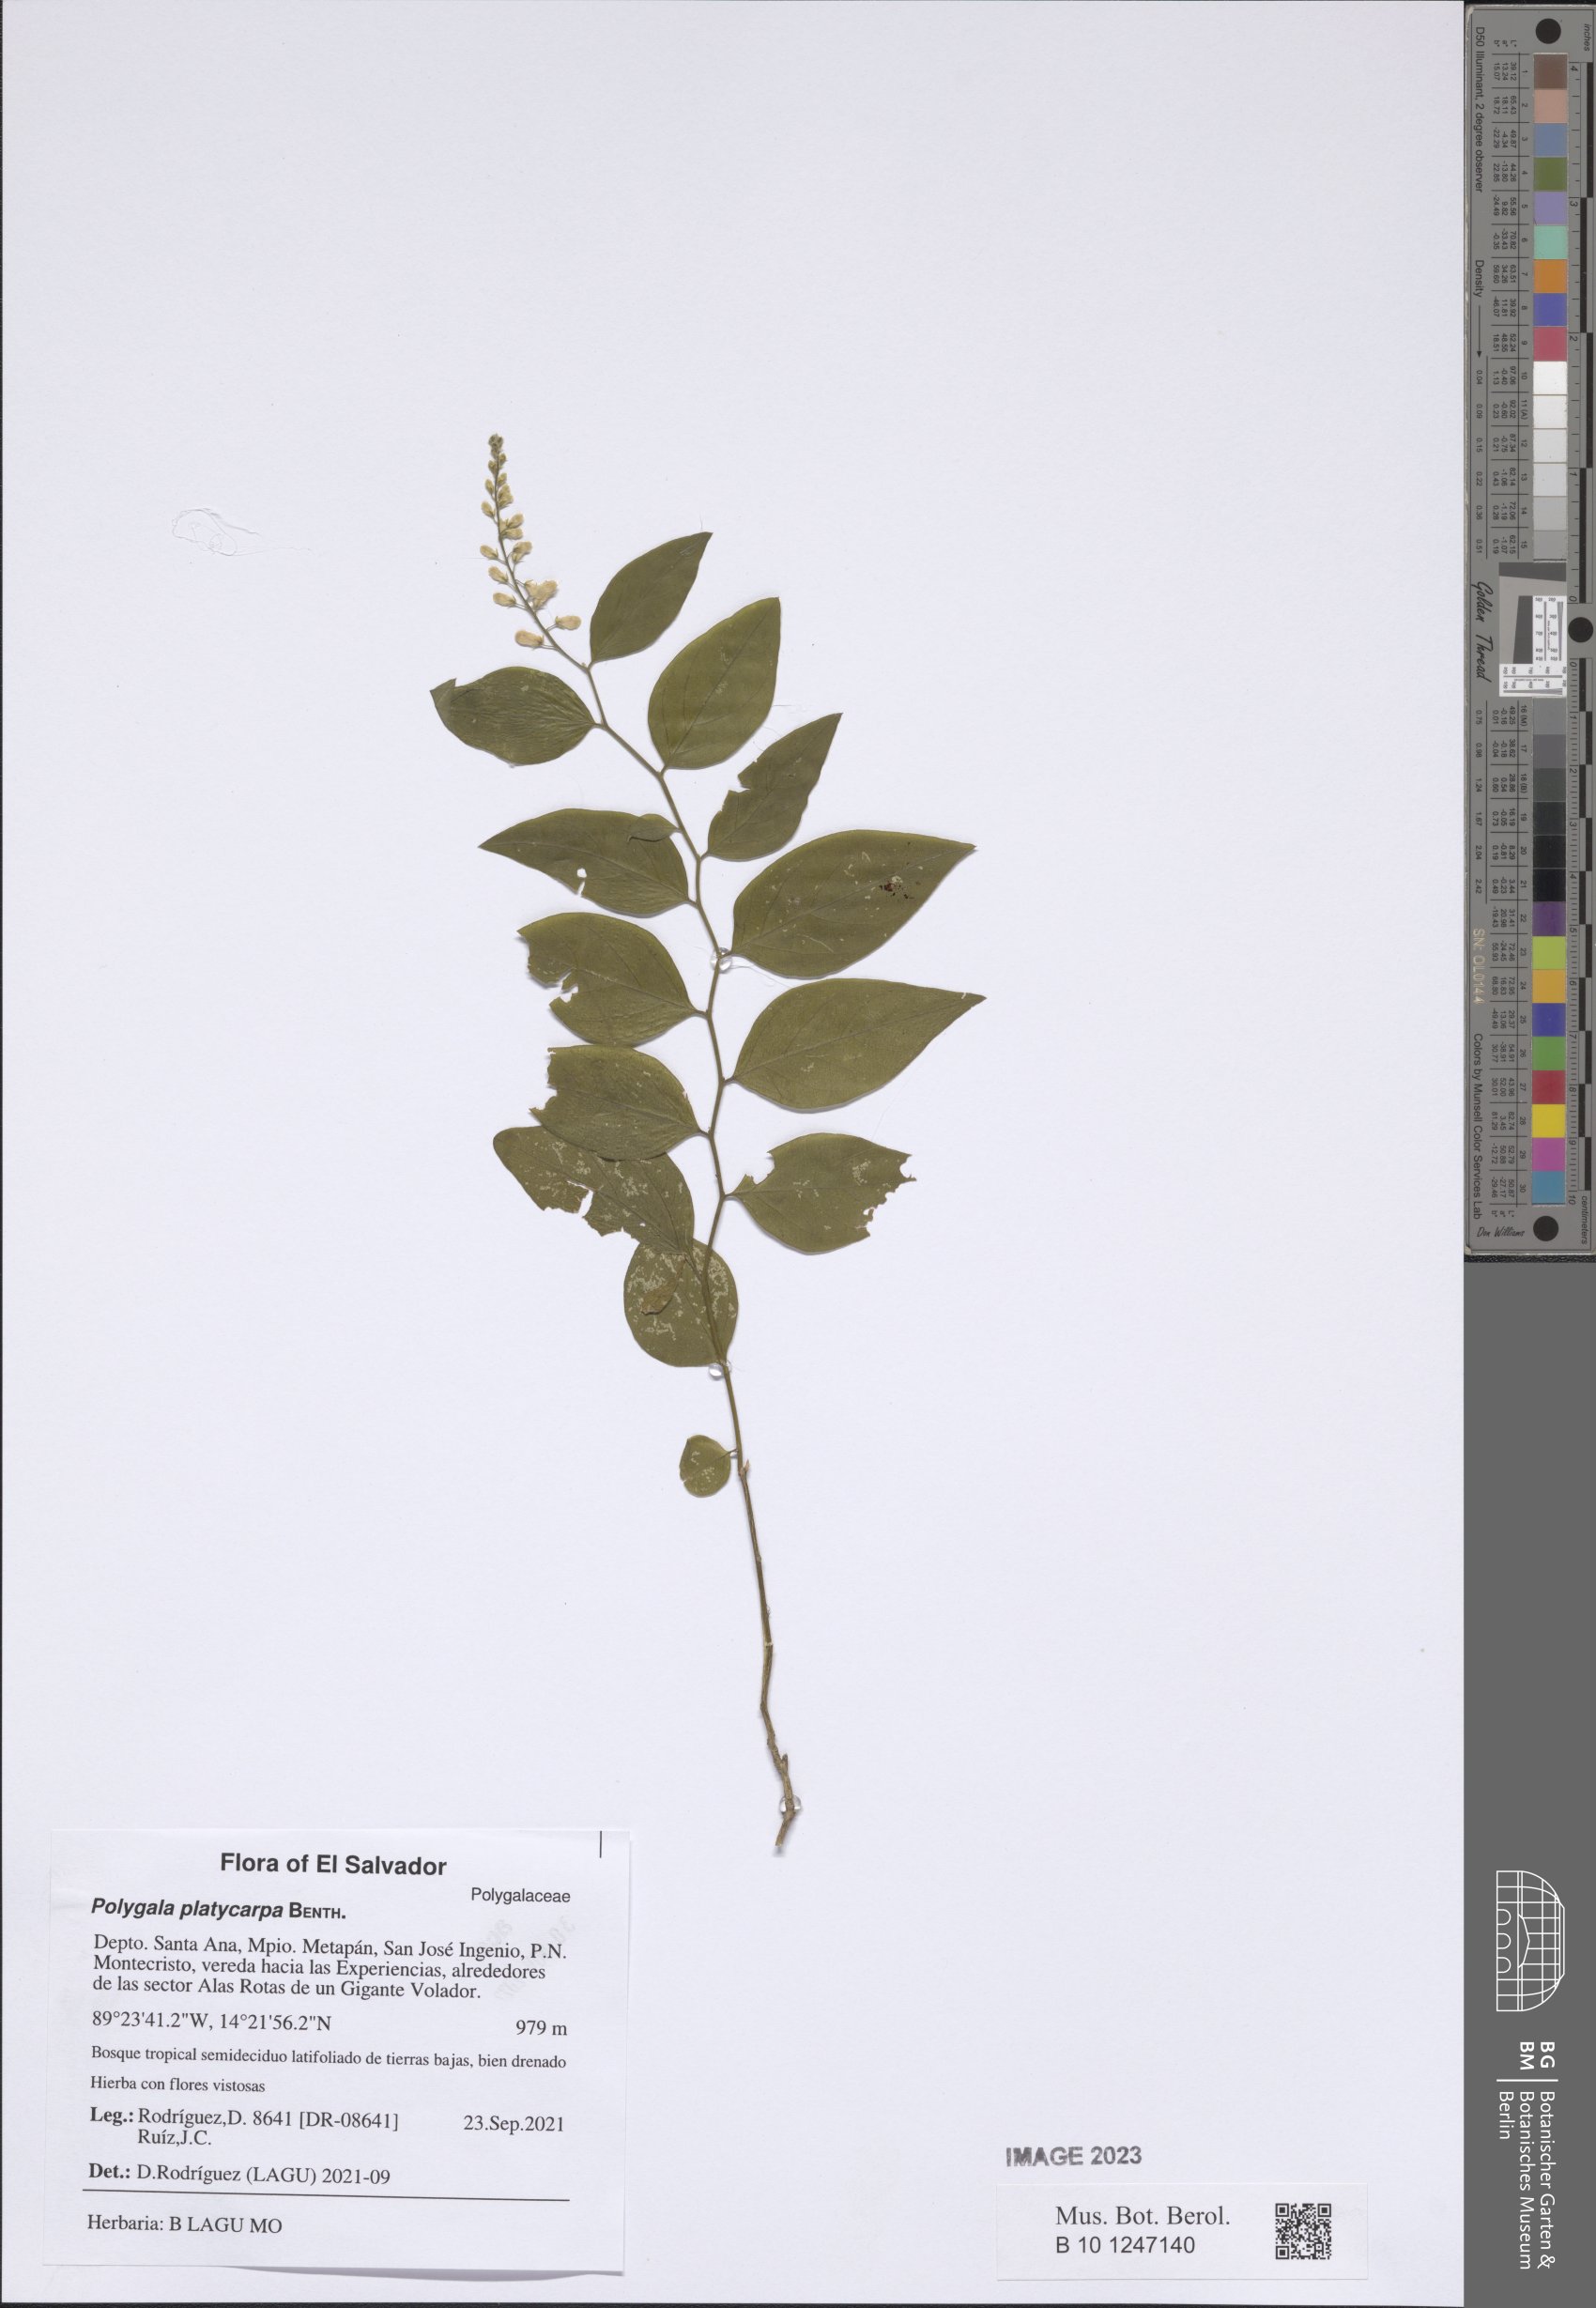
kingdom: Plantae
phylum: Tracheophyta
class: Magnoliopsida
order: Fabales
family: Polygalaceae
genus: Hebecarpa
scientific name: Hebecarpa platycarpa
